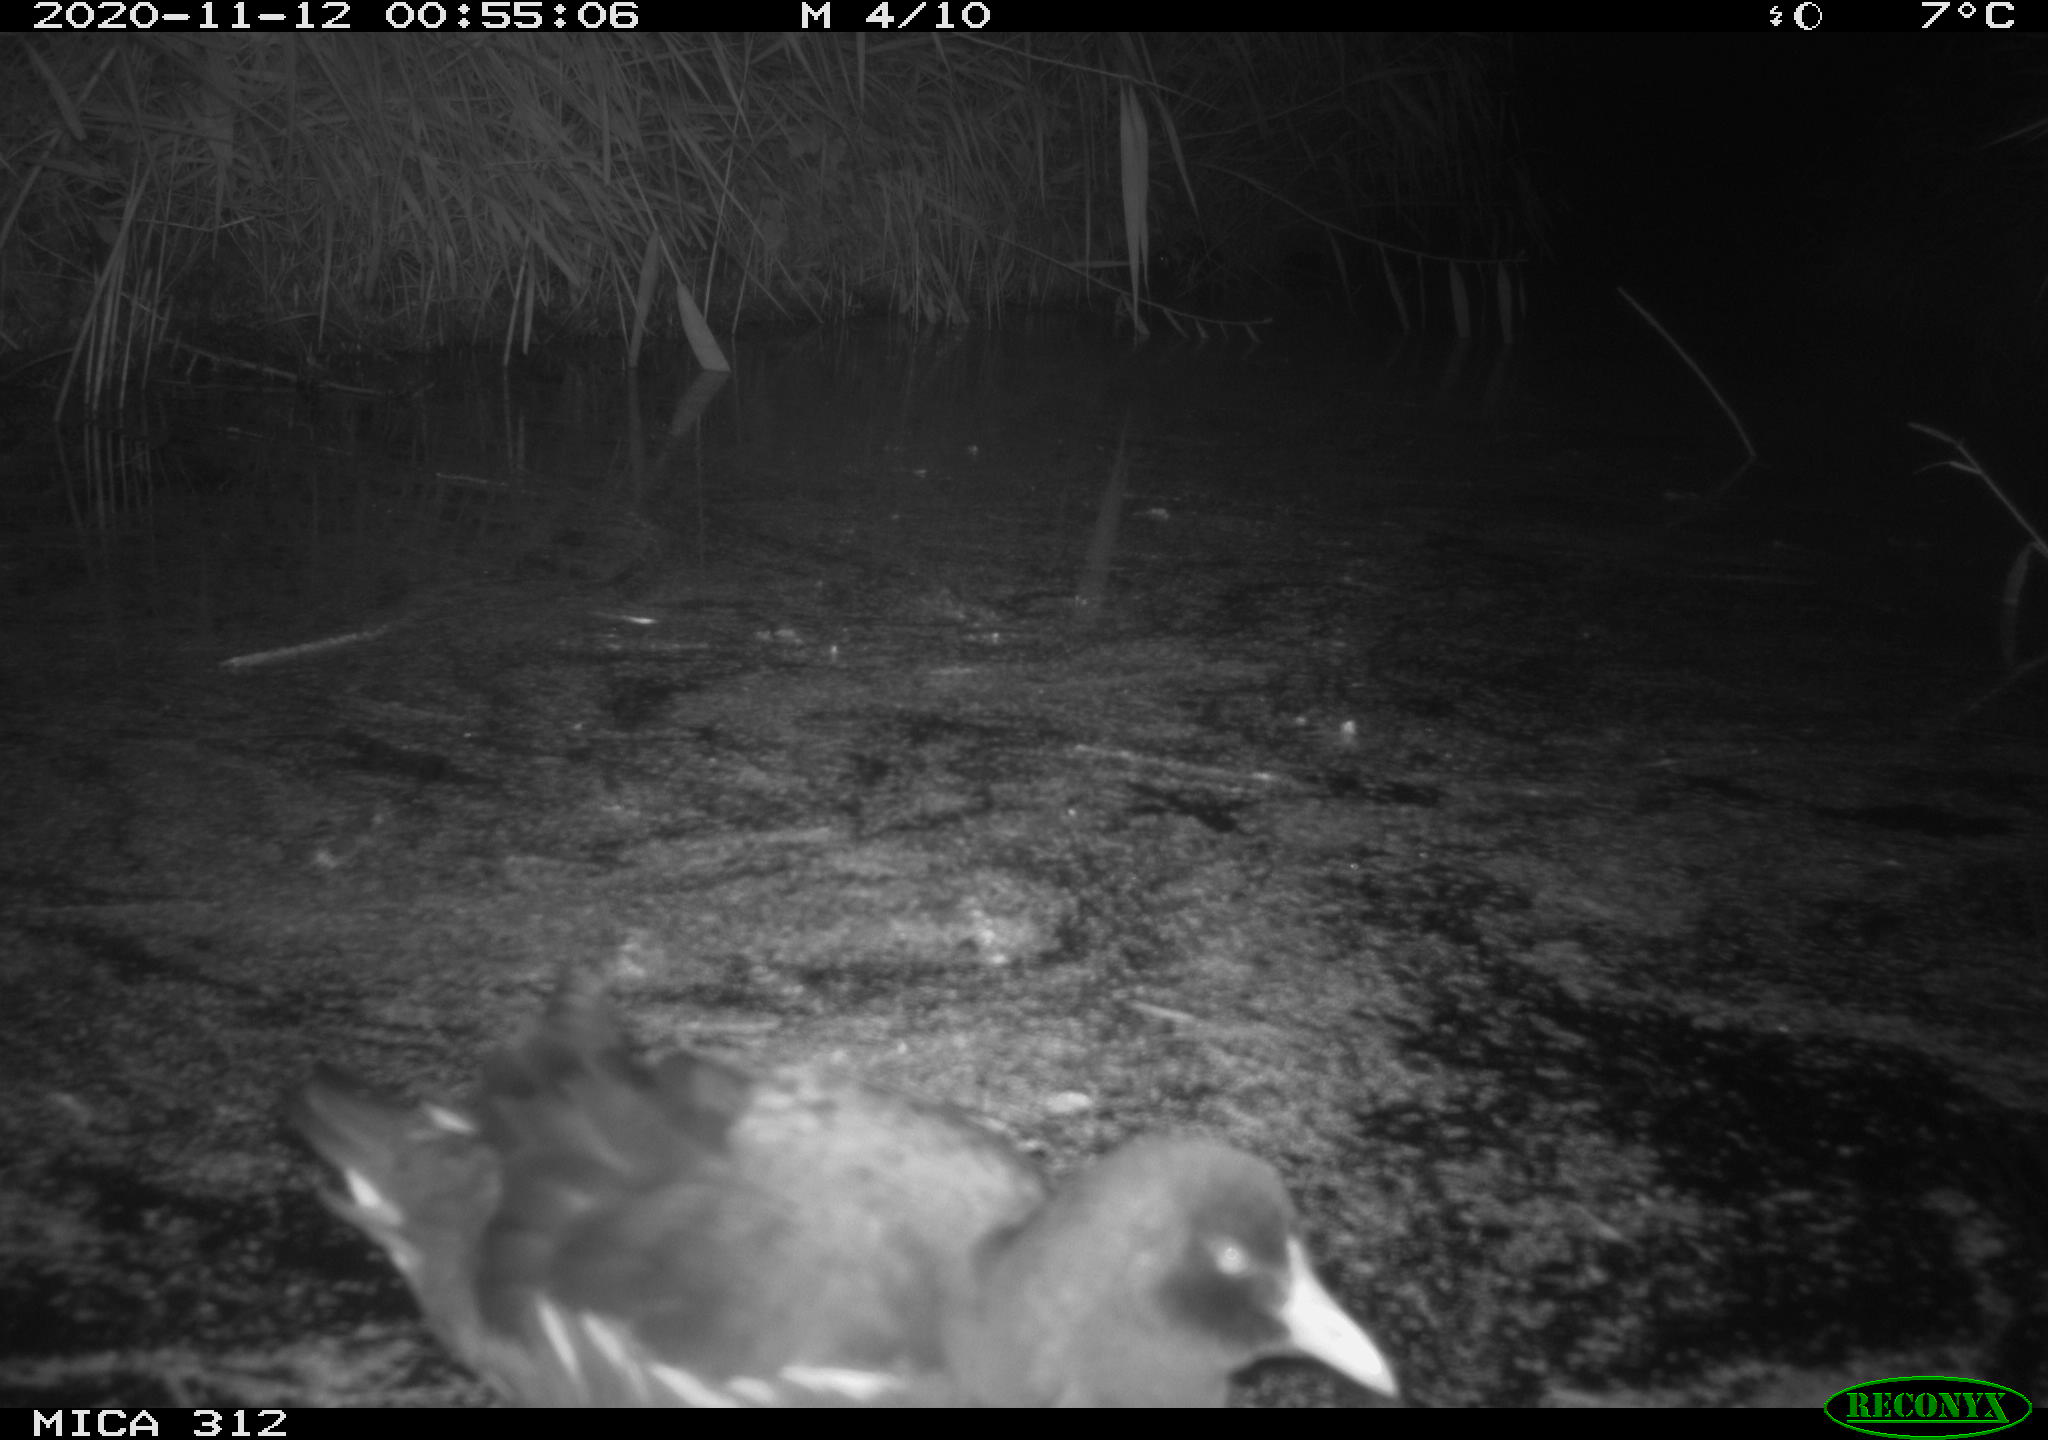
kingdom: Animalia
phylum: Chordata
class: Aves
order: Gruiformes
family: Rallidae
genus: Fulica
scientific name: Fulica atra
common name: Eurasian coot
